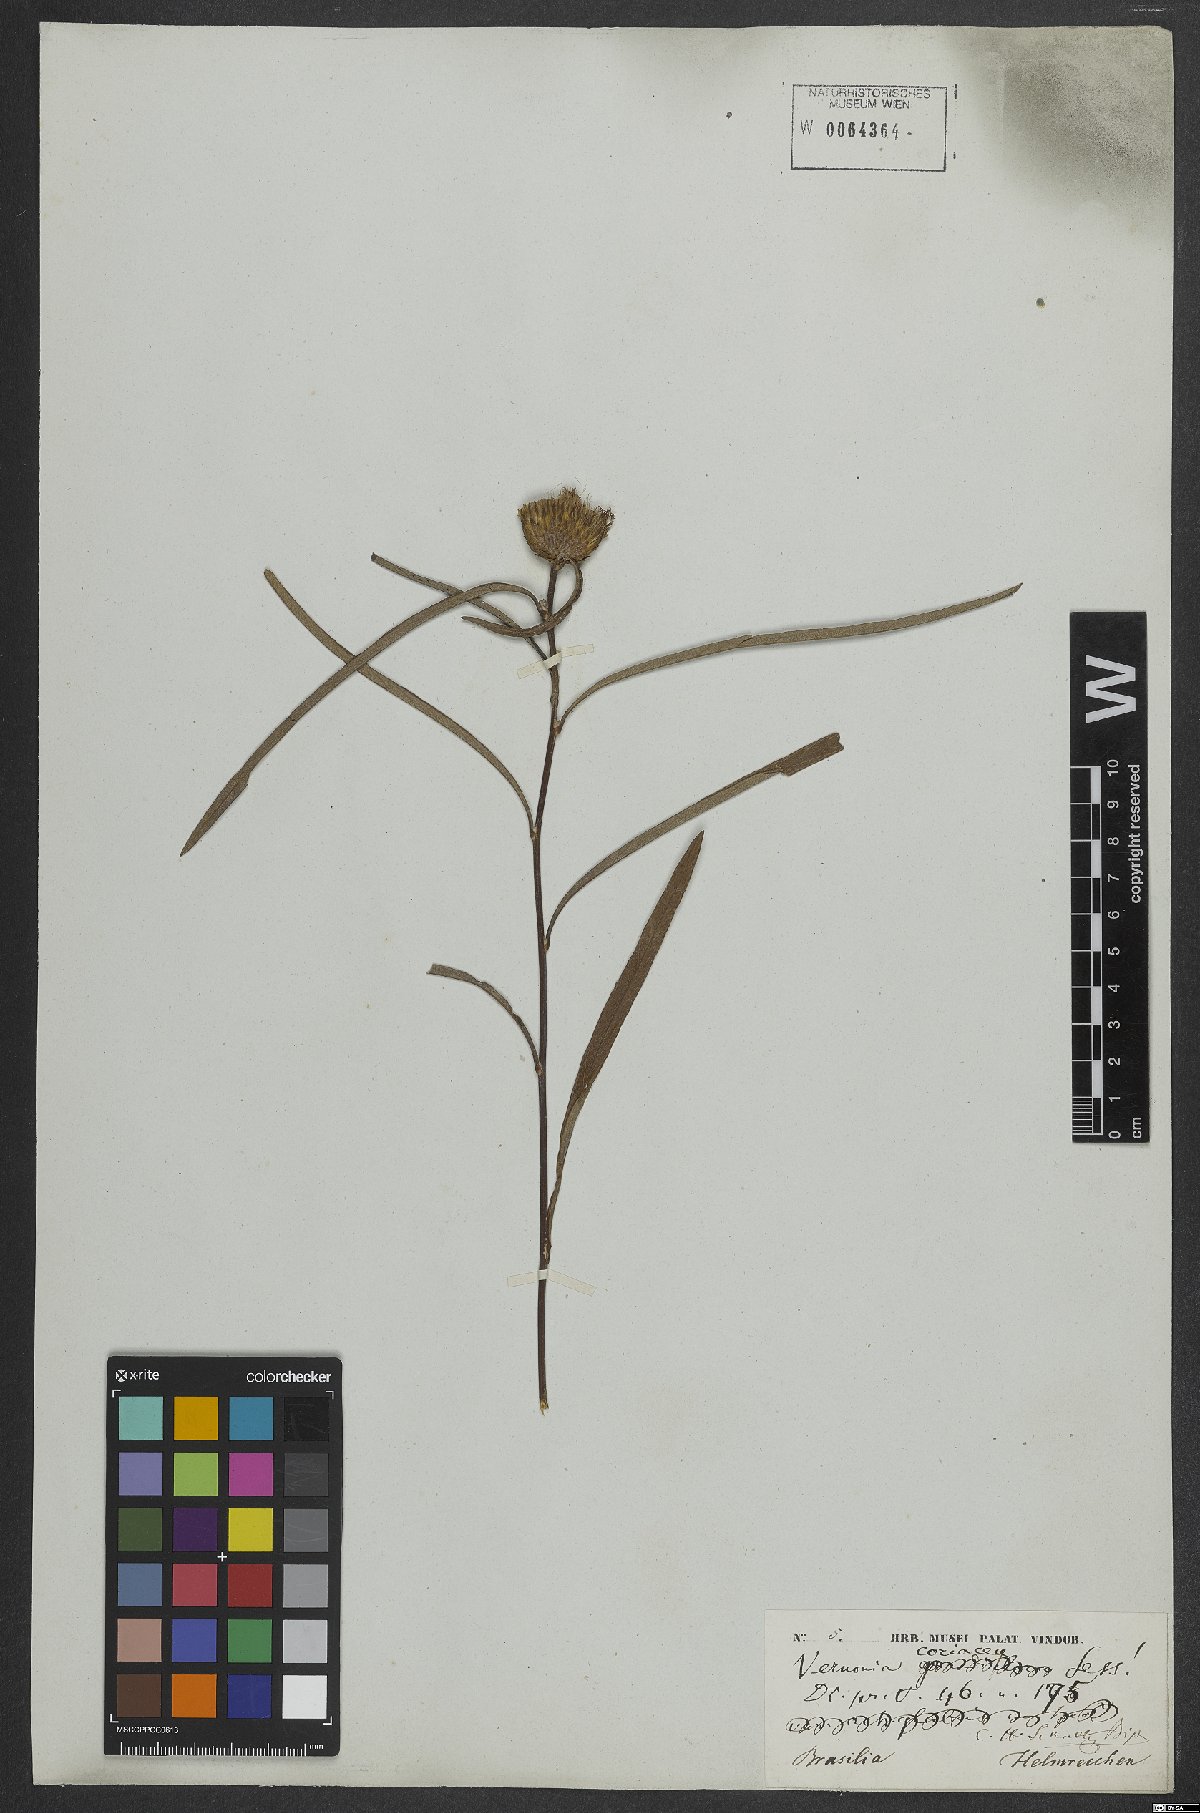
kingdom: Plantae
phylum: Tracheophyta
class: Magnoliopsida
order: Asterales
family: Asteraceae
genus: Lessingianthus
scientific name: Lessingianthus coriaceus
